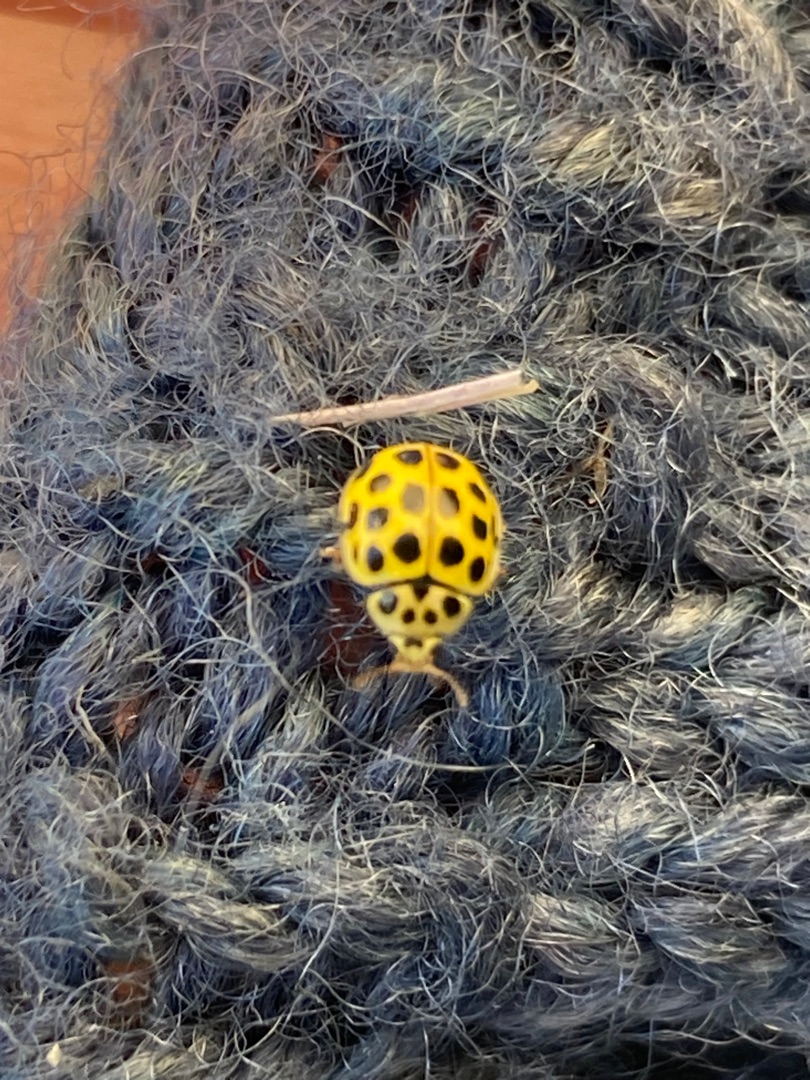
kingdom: Animalia
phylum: Arthropoda
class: Insecta
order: Coleoptera
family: Coccinellidae
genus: Psyllobora
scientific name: Psyllobora vigintiduopunctata
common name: Toogtyveplettet mariehøne
